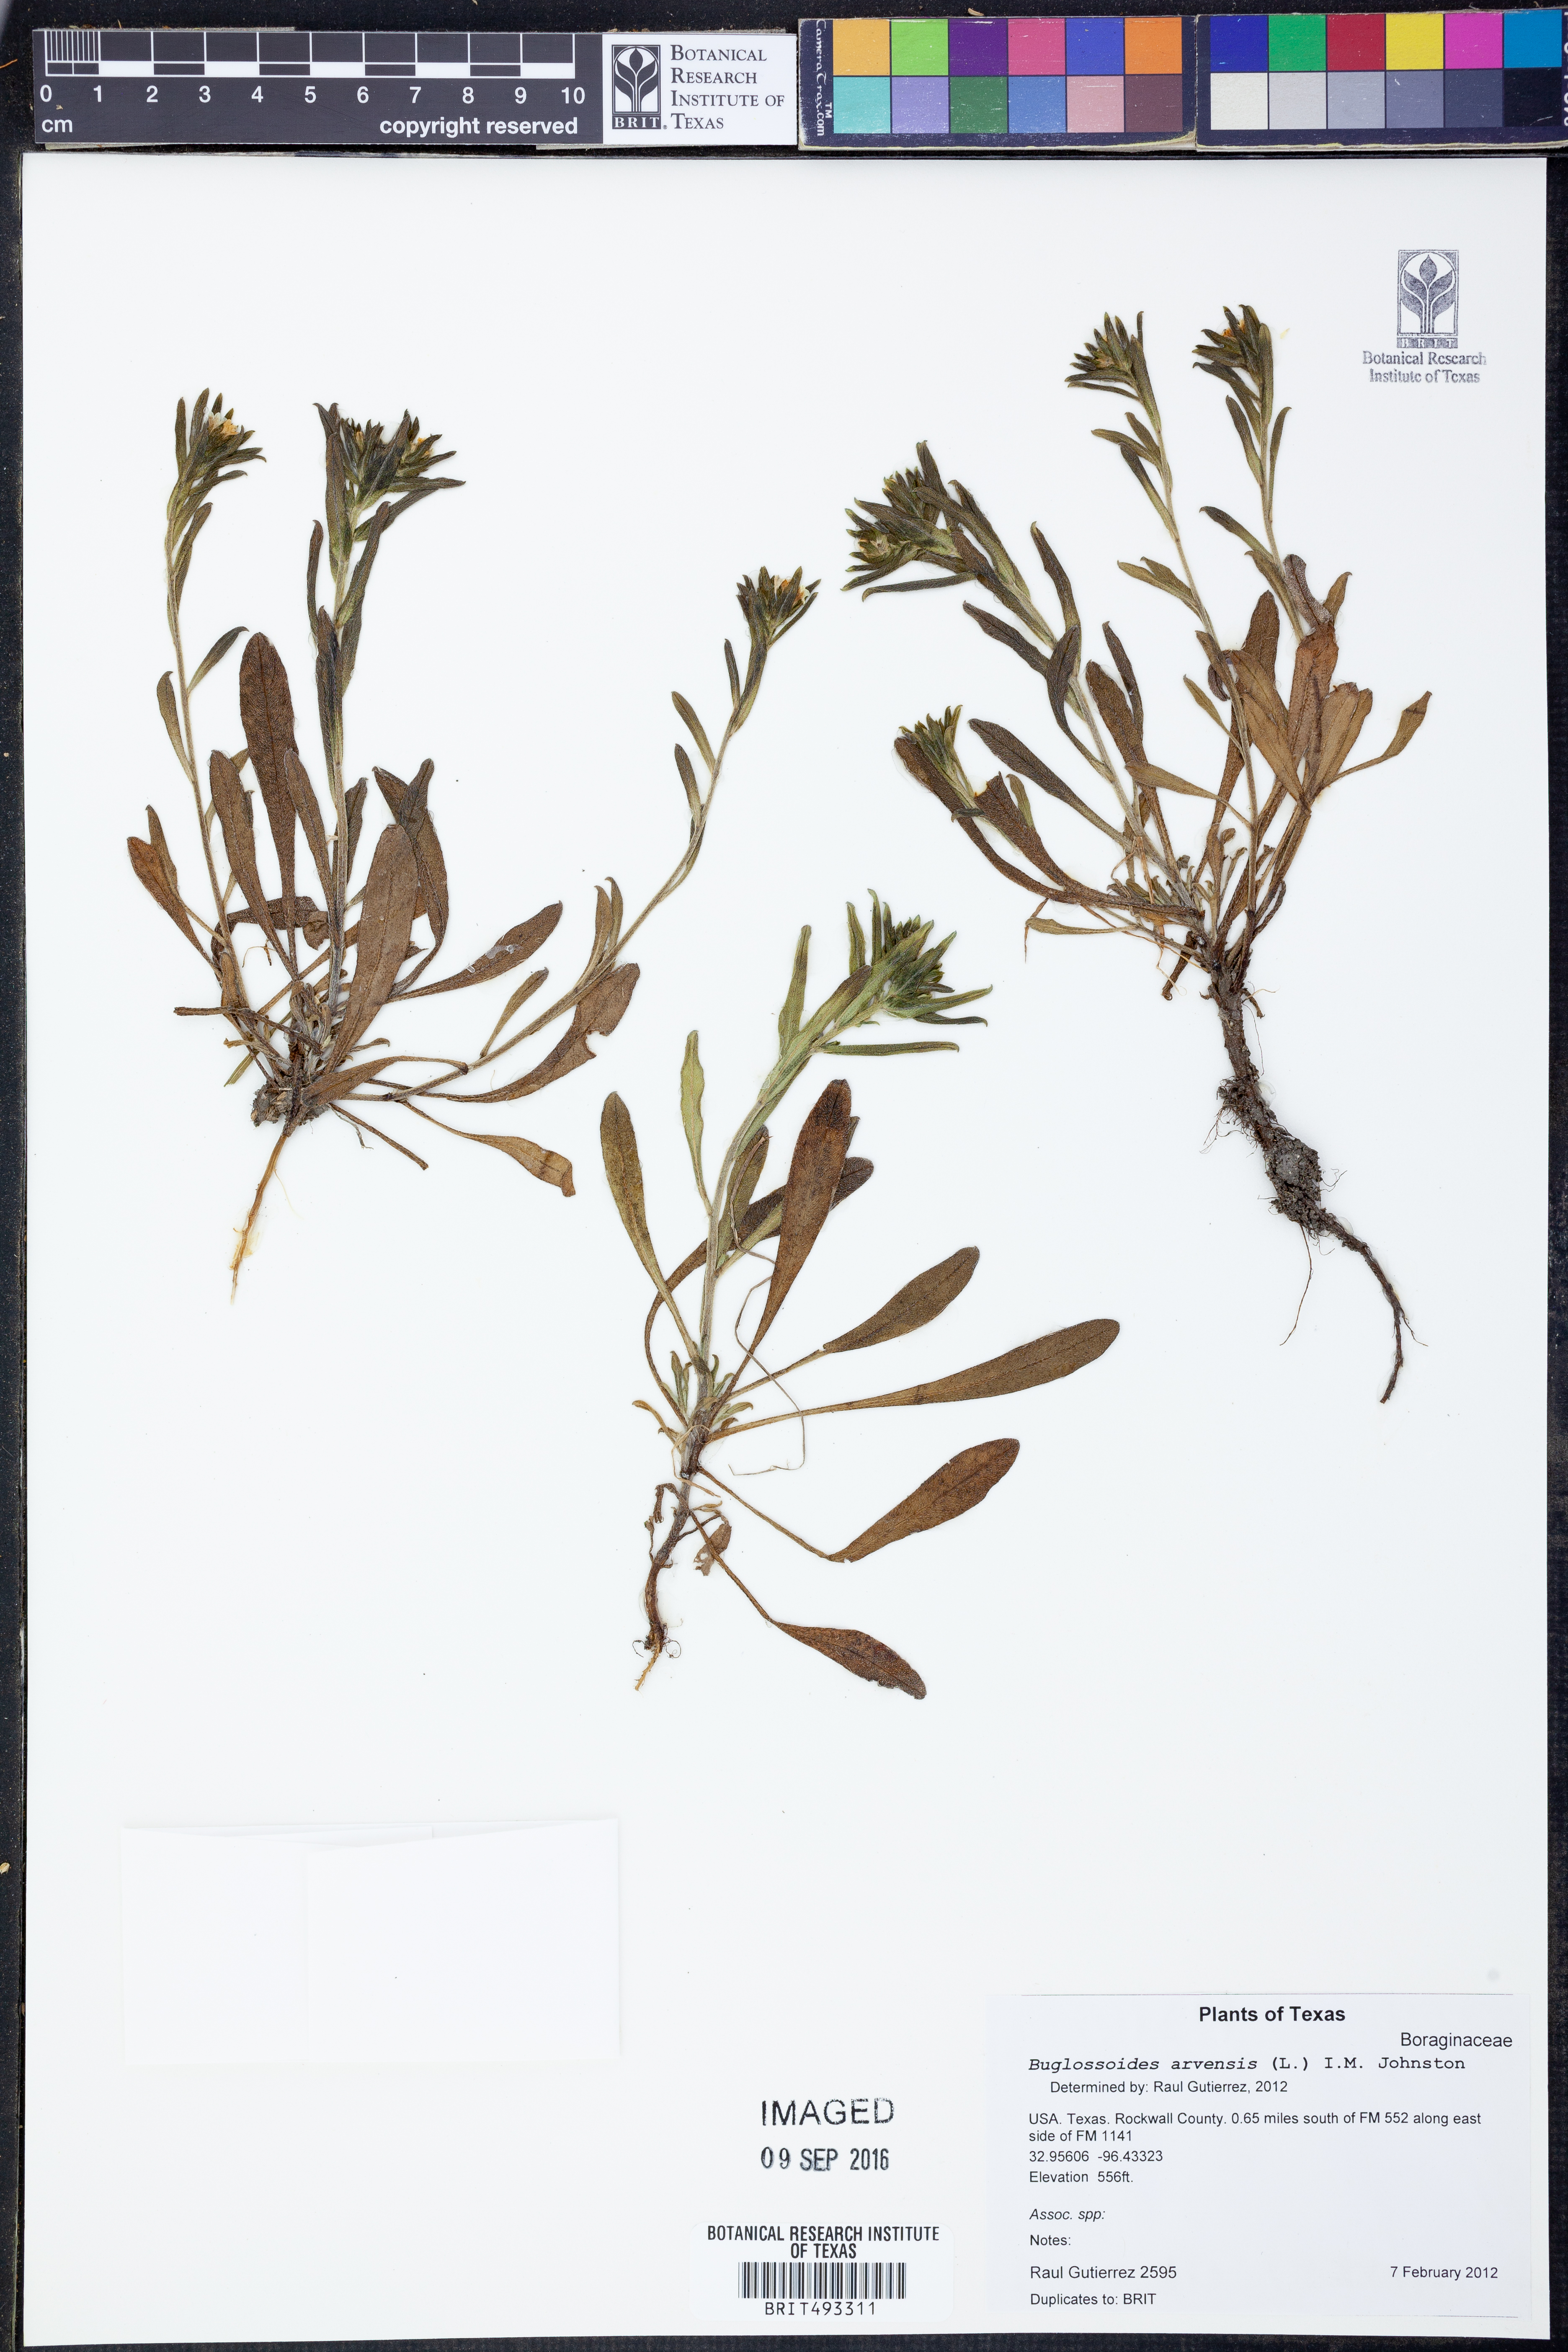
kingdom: Plantae
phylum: Tracheophyta
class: Magnoliopsida
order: Boraginales
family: Boraginaceae
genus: Buglossoides
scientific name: Buglossoides arvensis
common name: Corn gromwell
